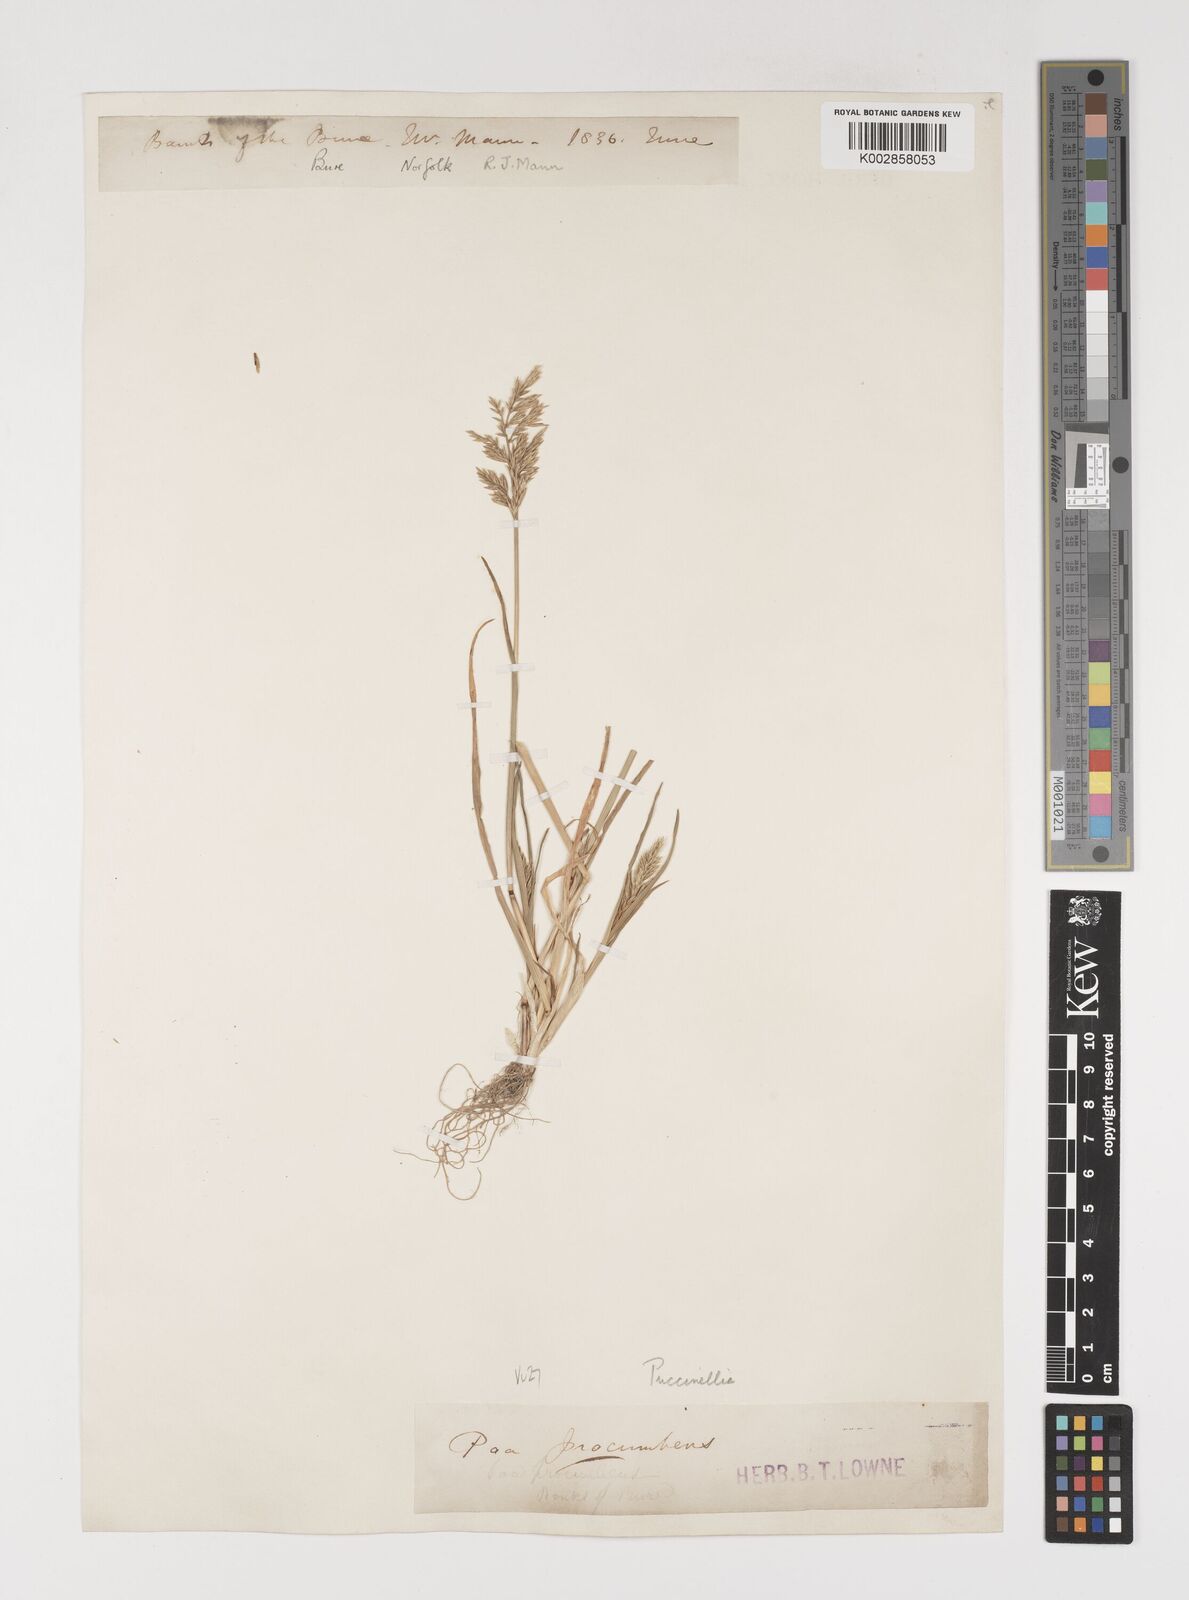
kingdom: Plantae
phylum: Tracheophyta
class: Liliopsida
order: Poales
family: Poaceae
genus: Puccinellia
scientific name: Puccinellia rupestris
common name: Stiff saltmarsh-grass
